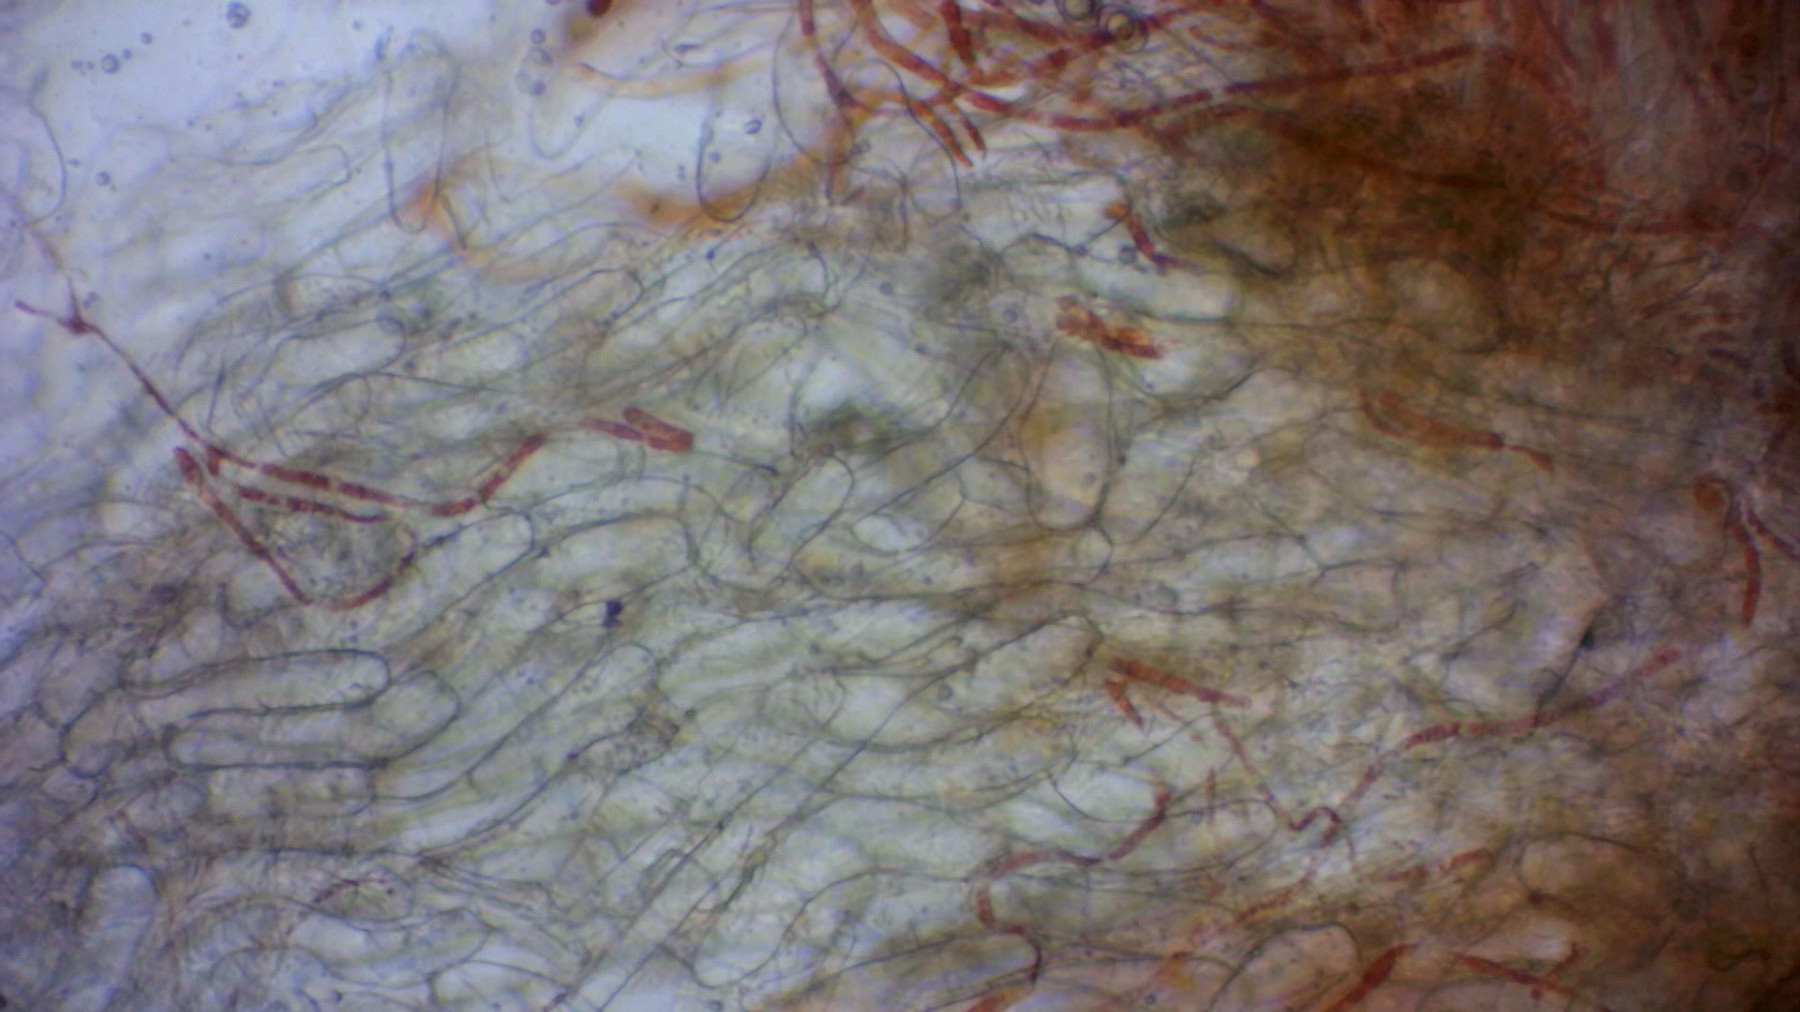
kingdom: Fungi
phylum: Ascomycota
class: Pezizomycetes
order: Pezizales
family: Pyronemataceae
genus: Octospora
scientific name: Octospora humosa
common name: Hotlips
